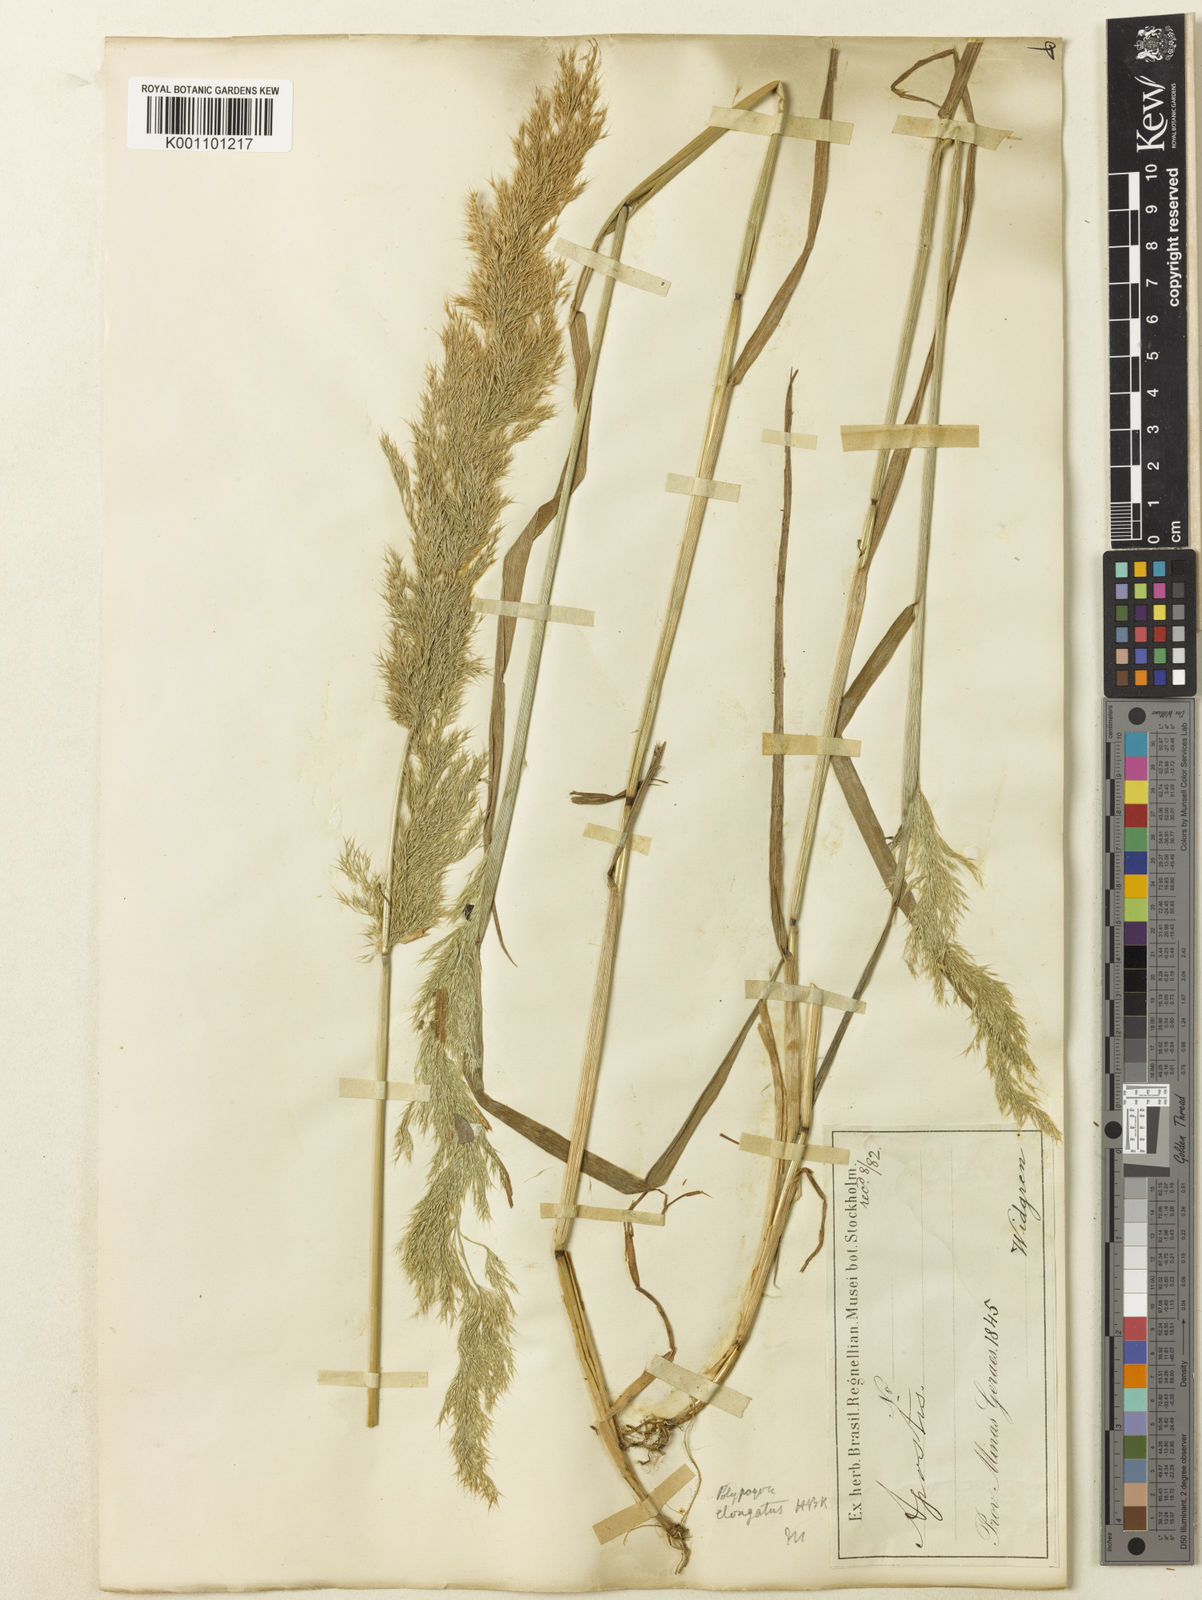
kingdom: Plantae
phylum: Tracheophyta
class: Liliopsida
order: Poales
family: Poaceae
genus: Polypogon
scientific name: Polypogon elongatus
